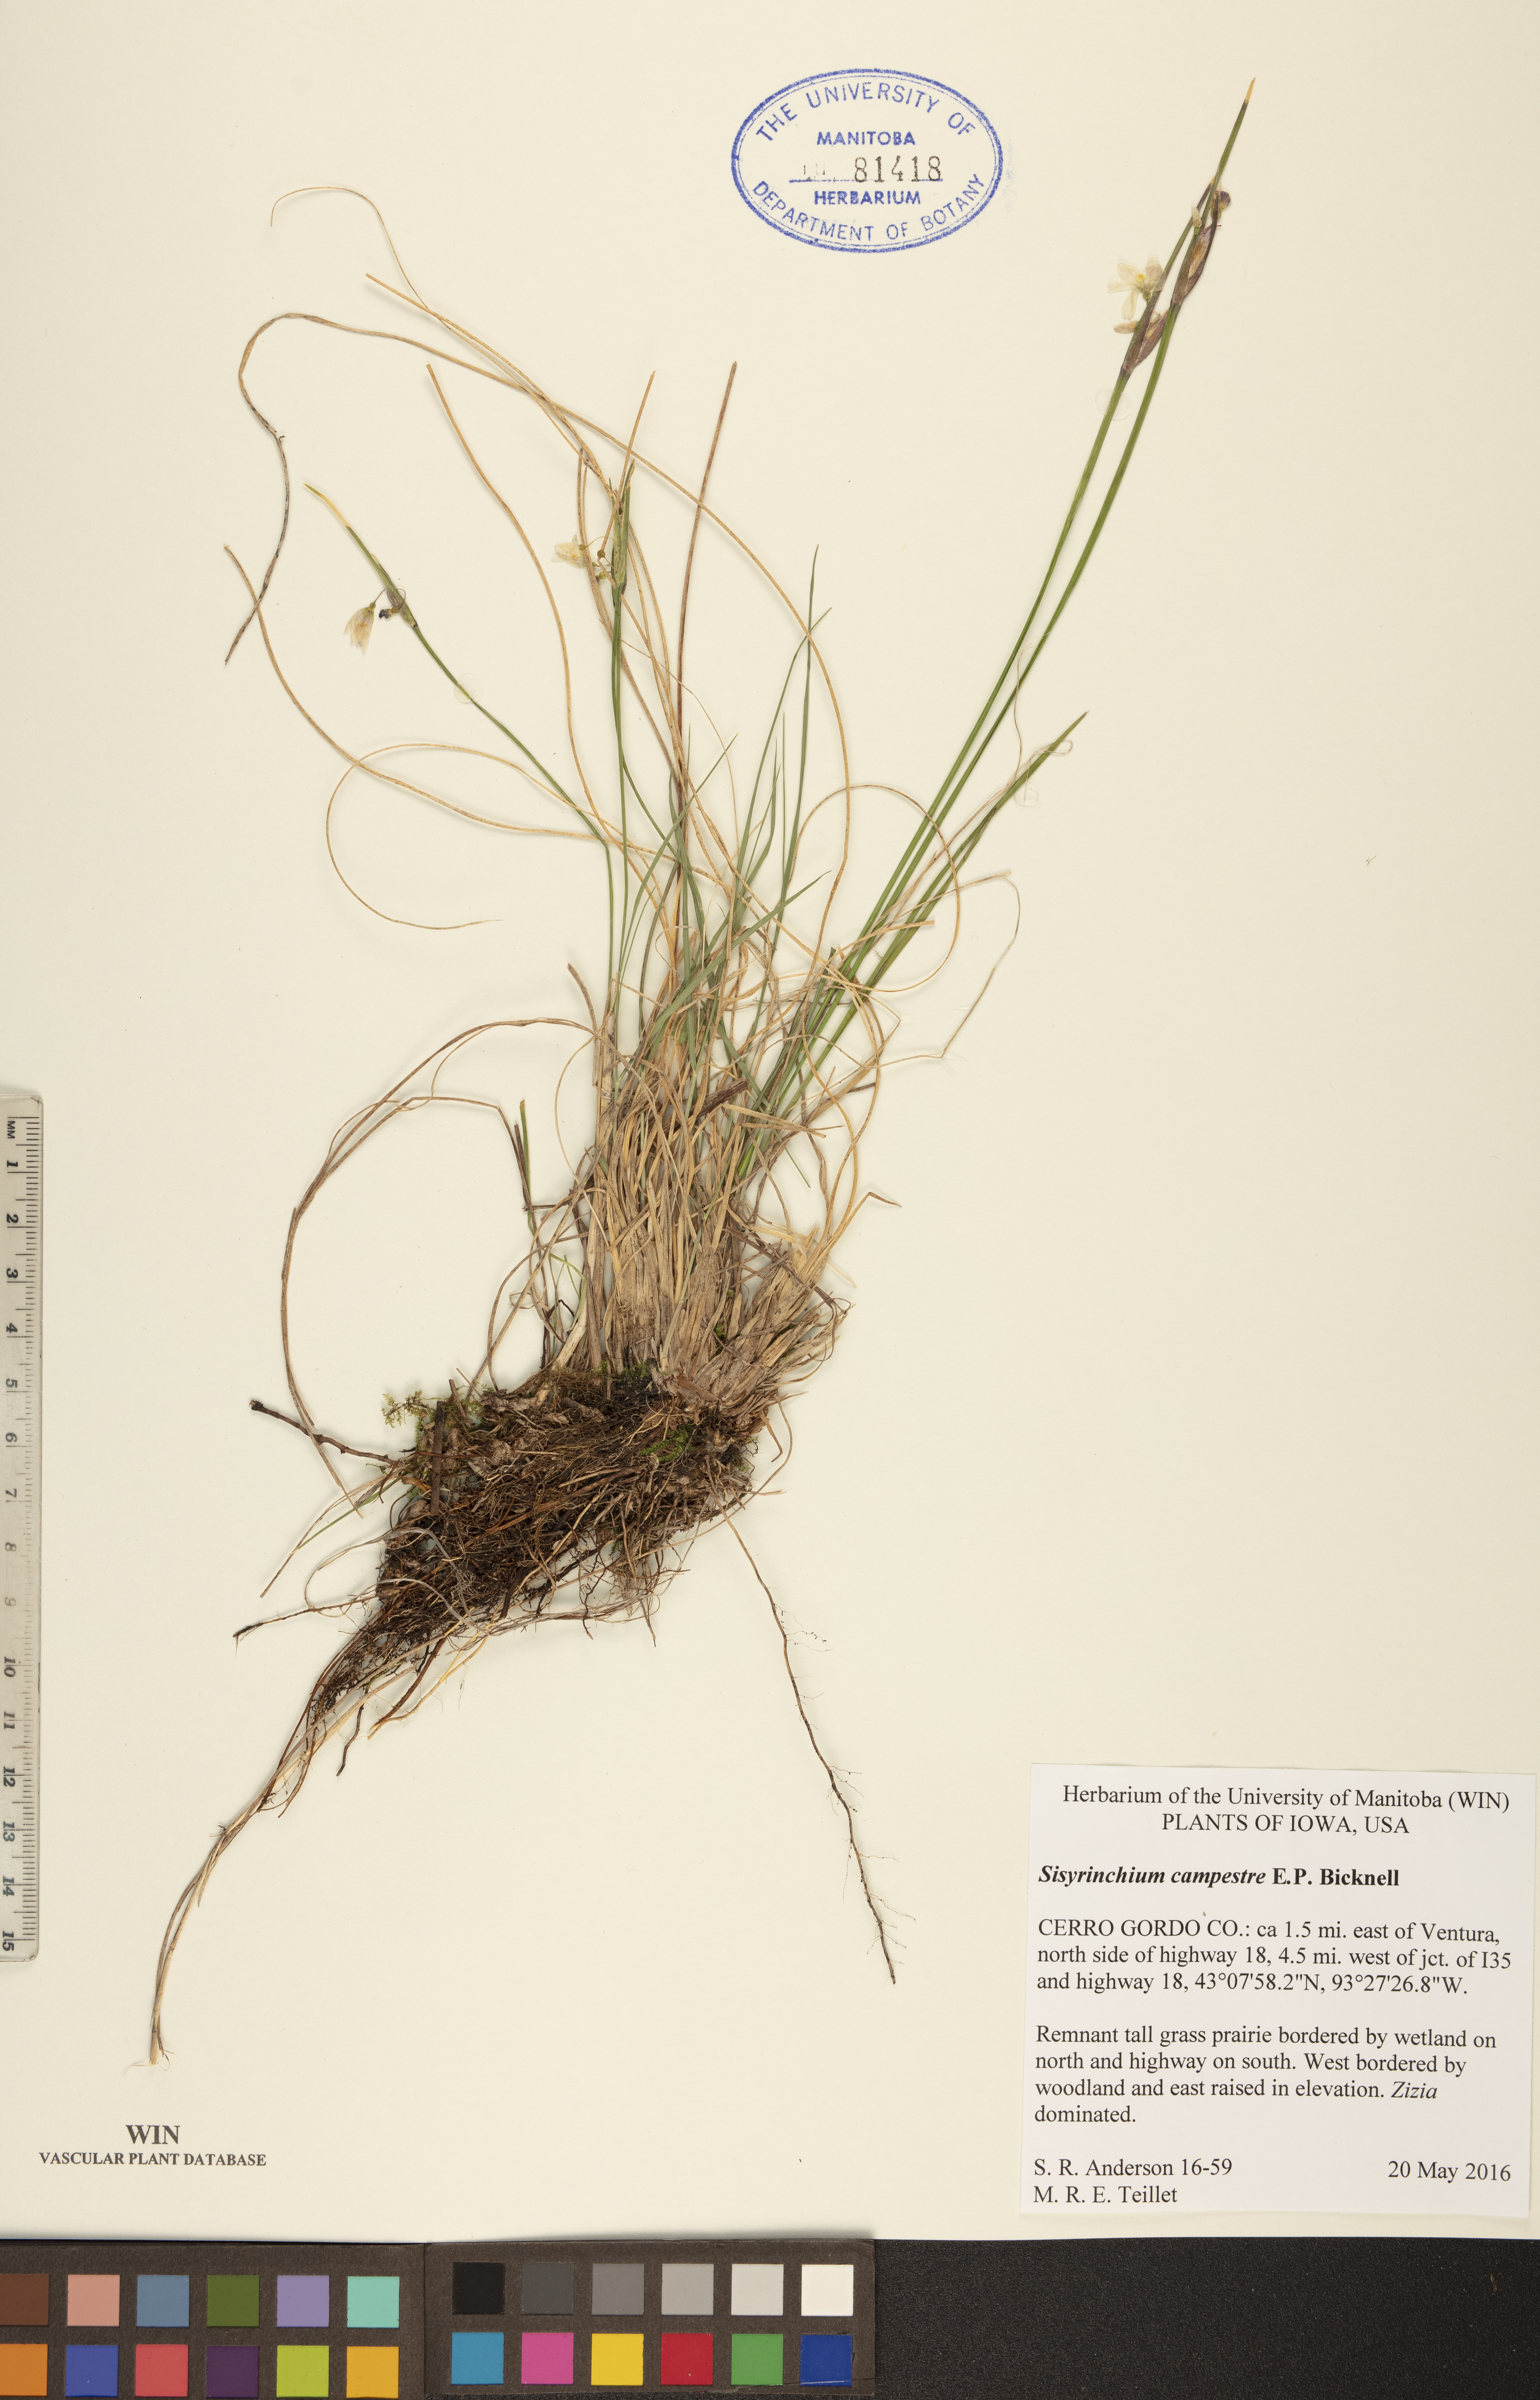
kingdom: Plantae
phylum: Tracheophyta
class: Liliopsida
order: Asparagales
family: Iridaceae
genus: Sisyrinchium
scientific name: Sisyrinchium campestre
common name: Prairie blue-eyed-grass
